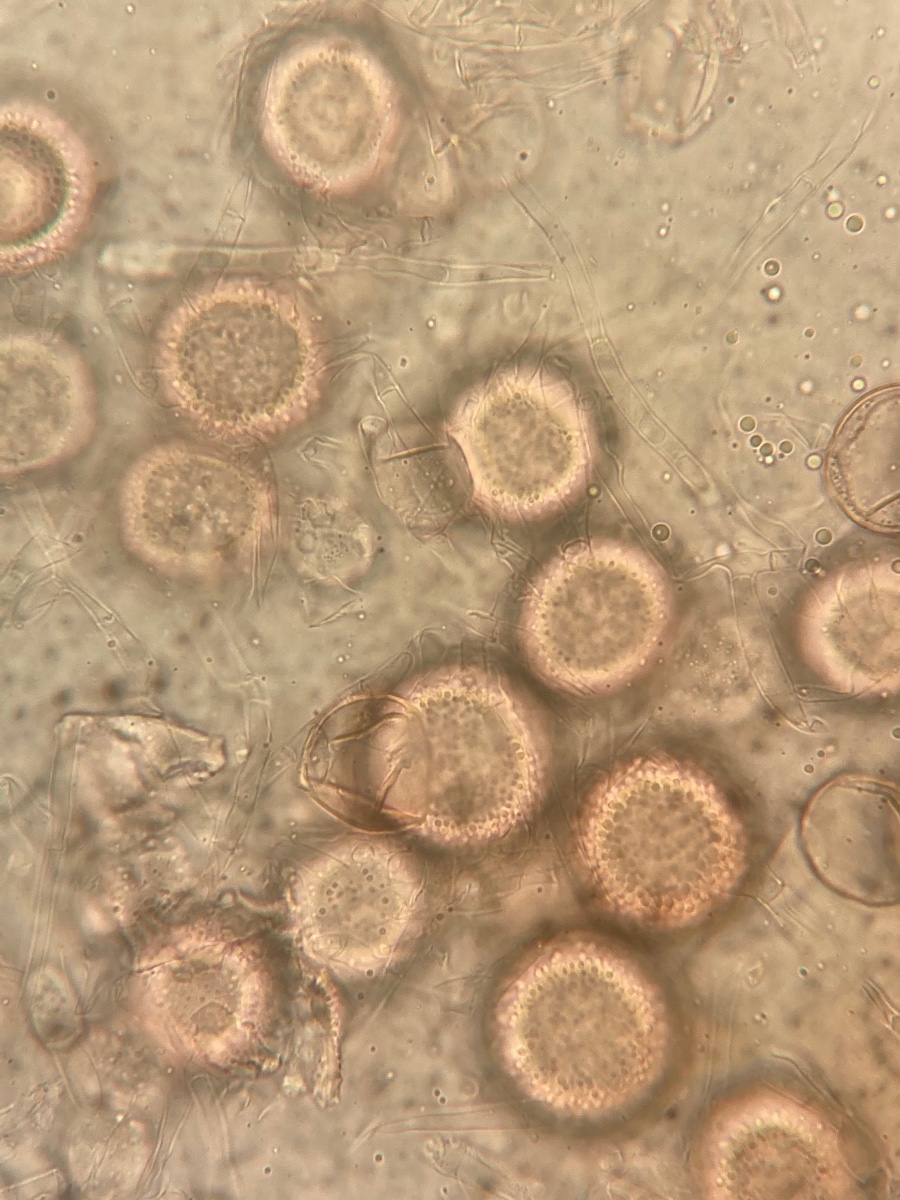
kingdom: Fungi
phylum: Ascomycota
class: Sordariomycetes
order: Hypocreales
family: Hypocreaceae
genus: Mycogone
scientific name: Mycogone rosea
